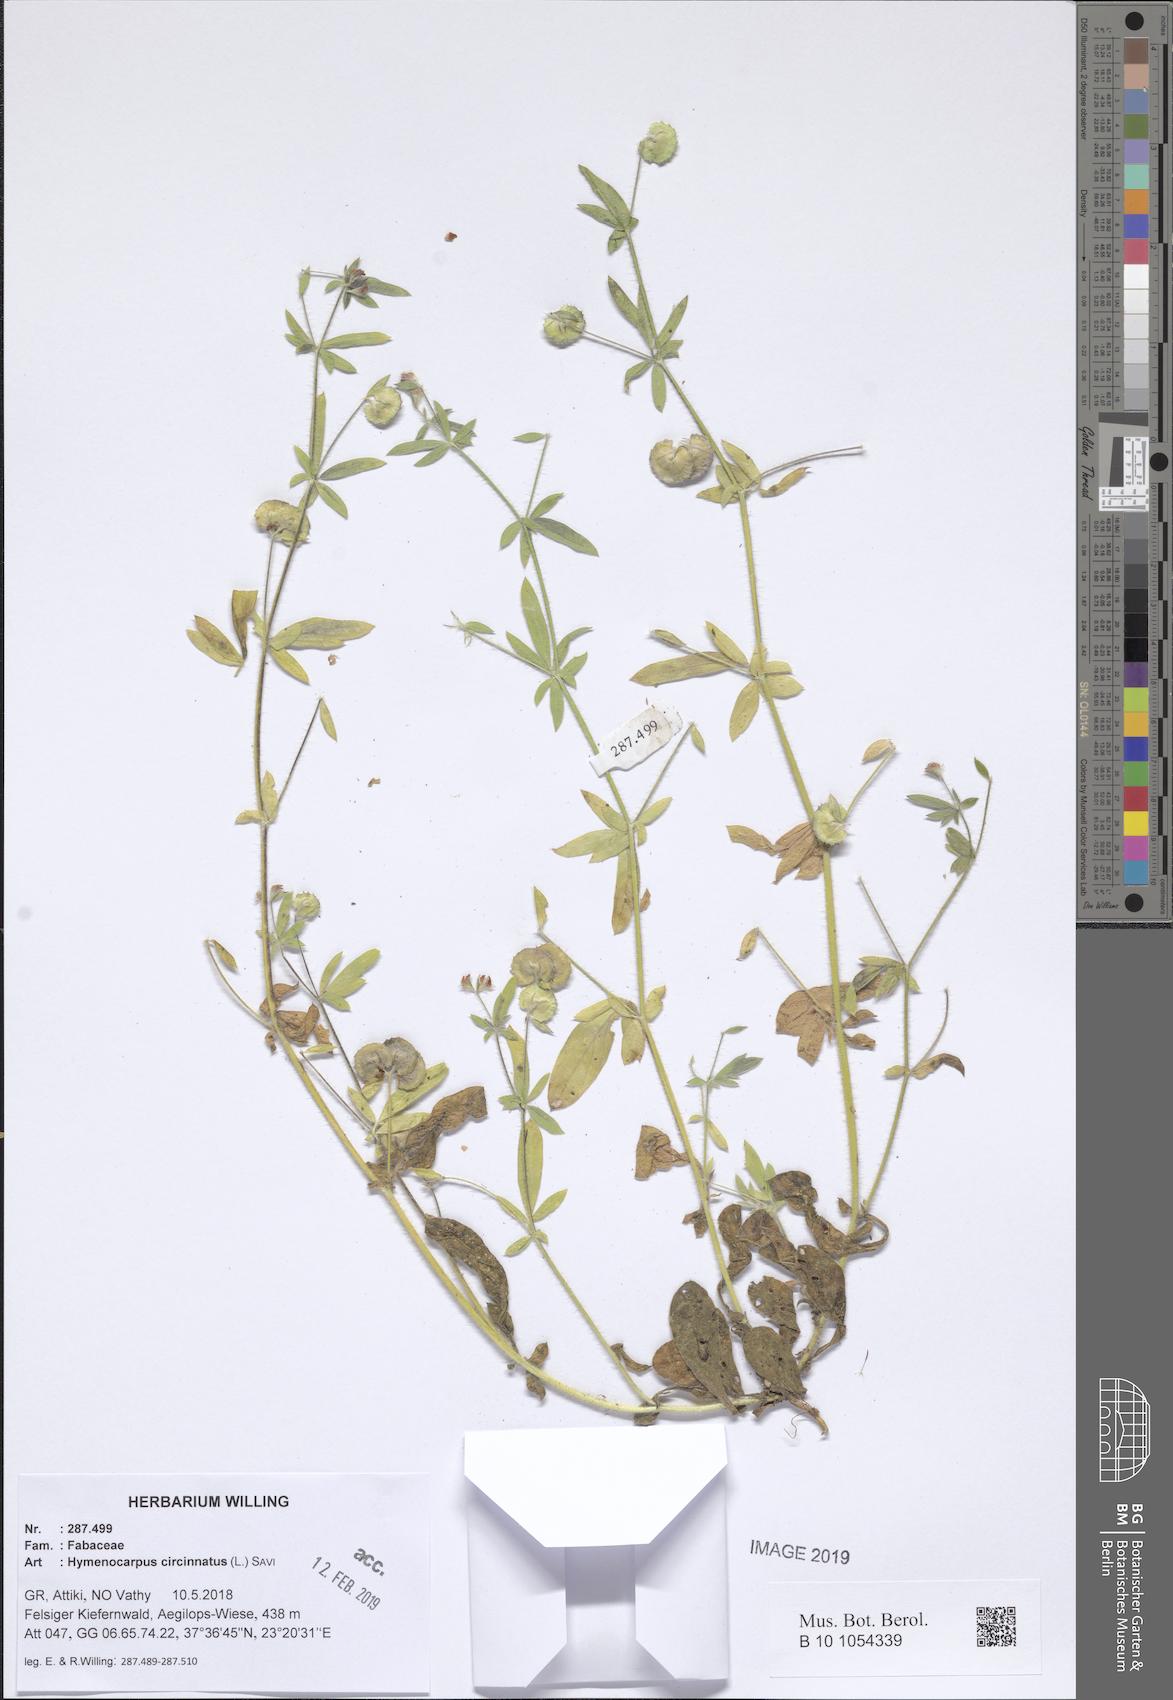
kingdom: Plantae
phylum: Tracheophyta
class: Magnoliopsida
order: Fabales
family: Fabaceae
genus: Anthyllis
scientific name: Anthyllis circinnata
